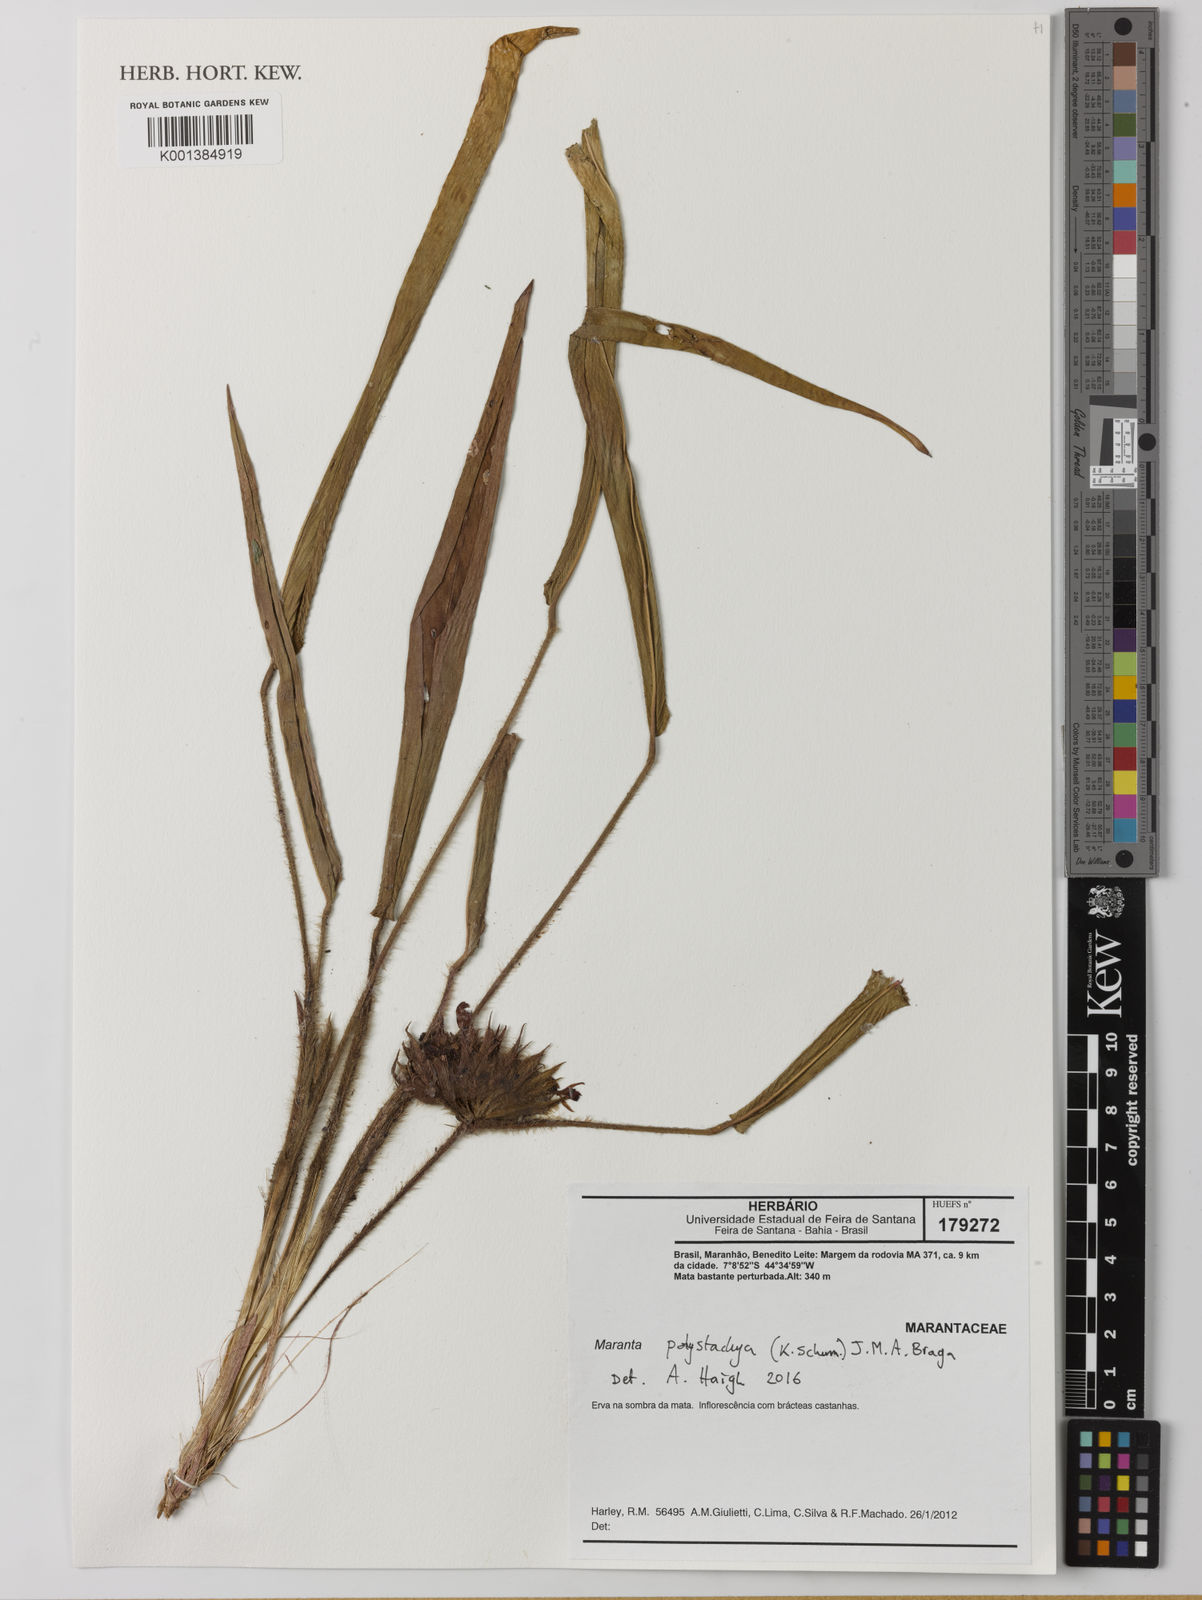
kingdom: Plantae
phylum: Tracheophyta
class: Liliopsida
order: Zingiberales
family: Marantaceae
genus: Ischnosiphon
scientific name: Ischnosiphon polyphyllus
